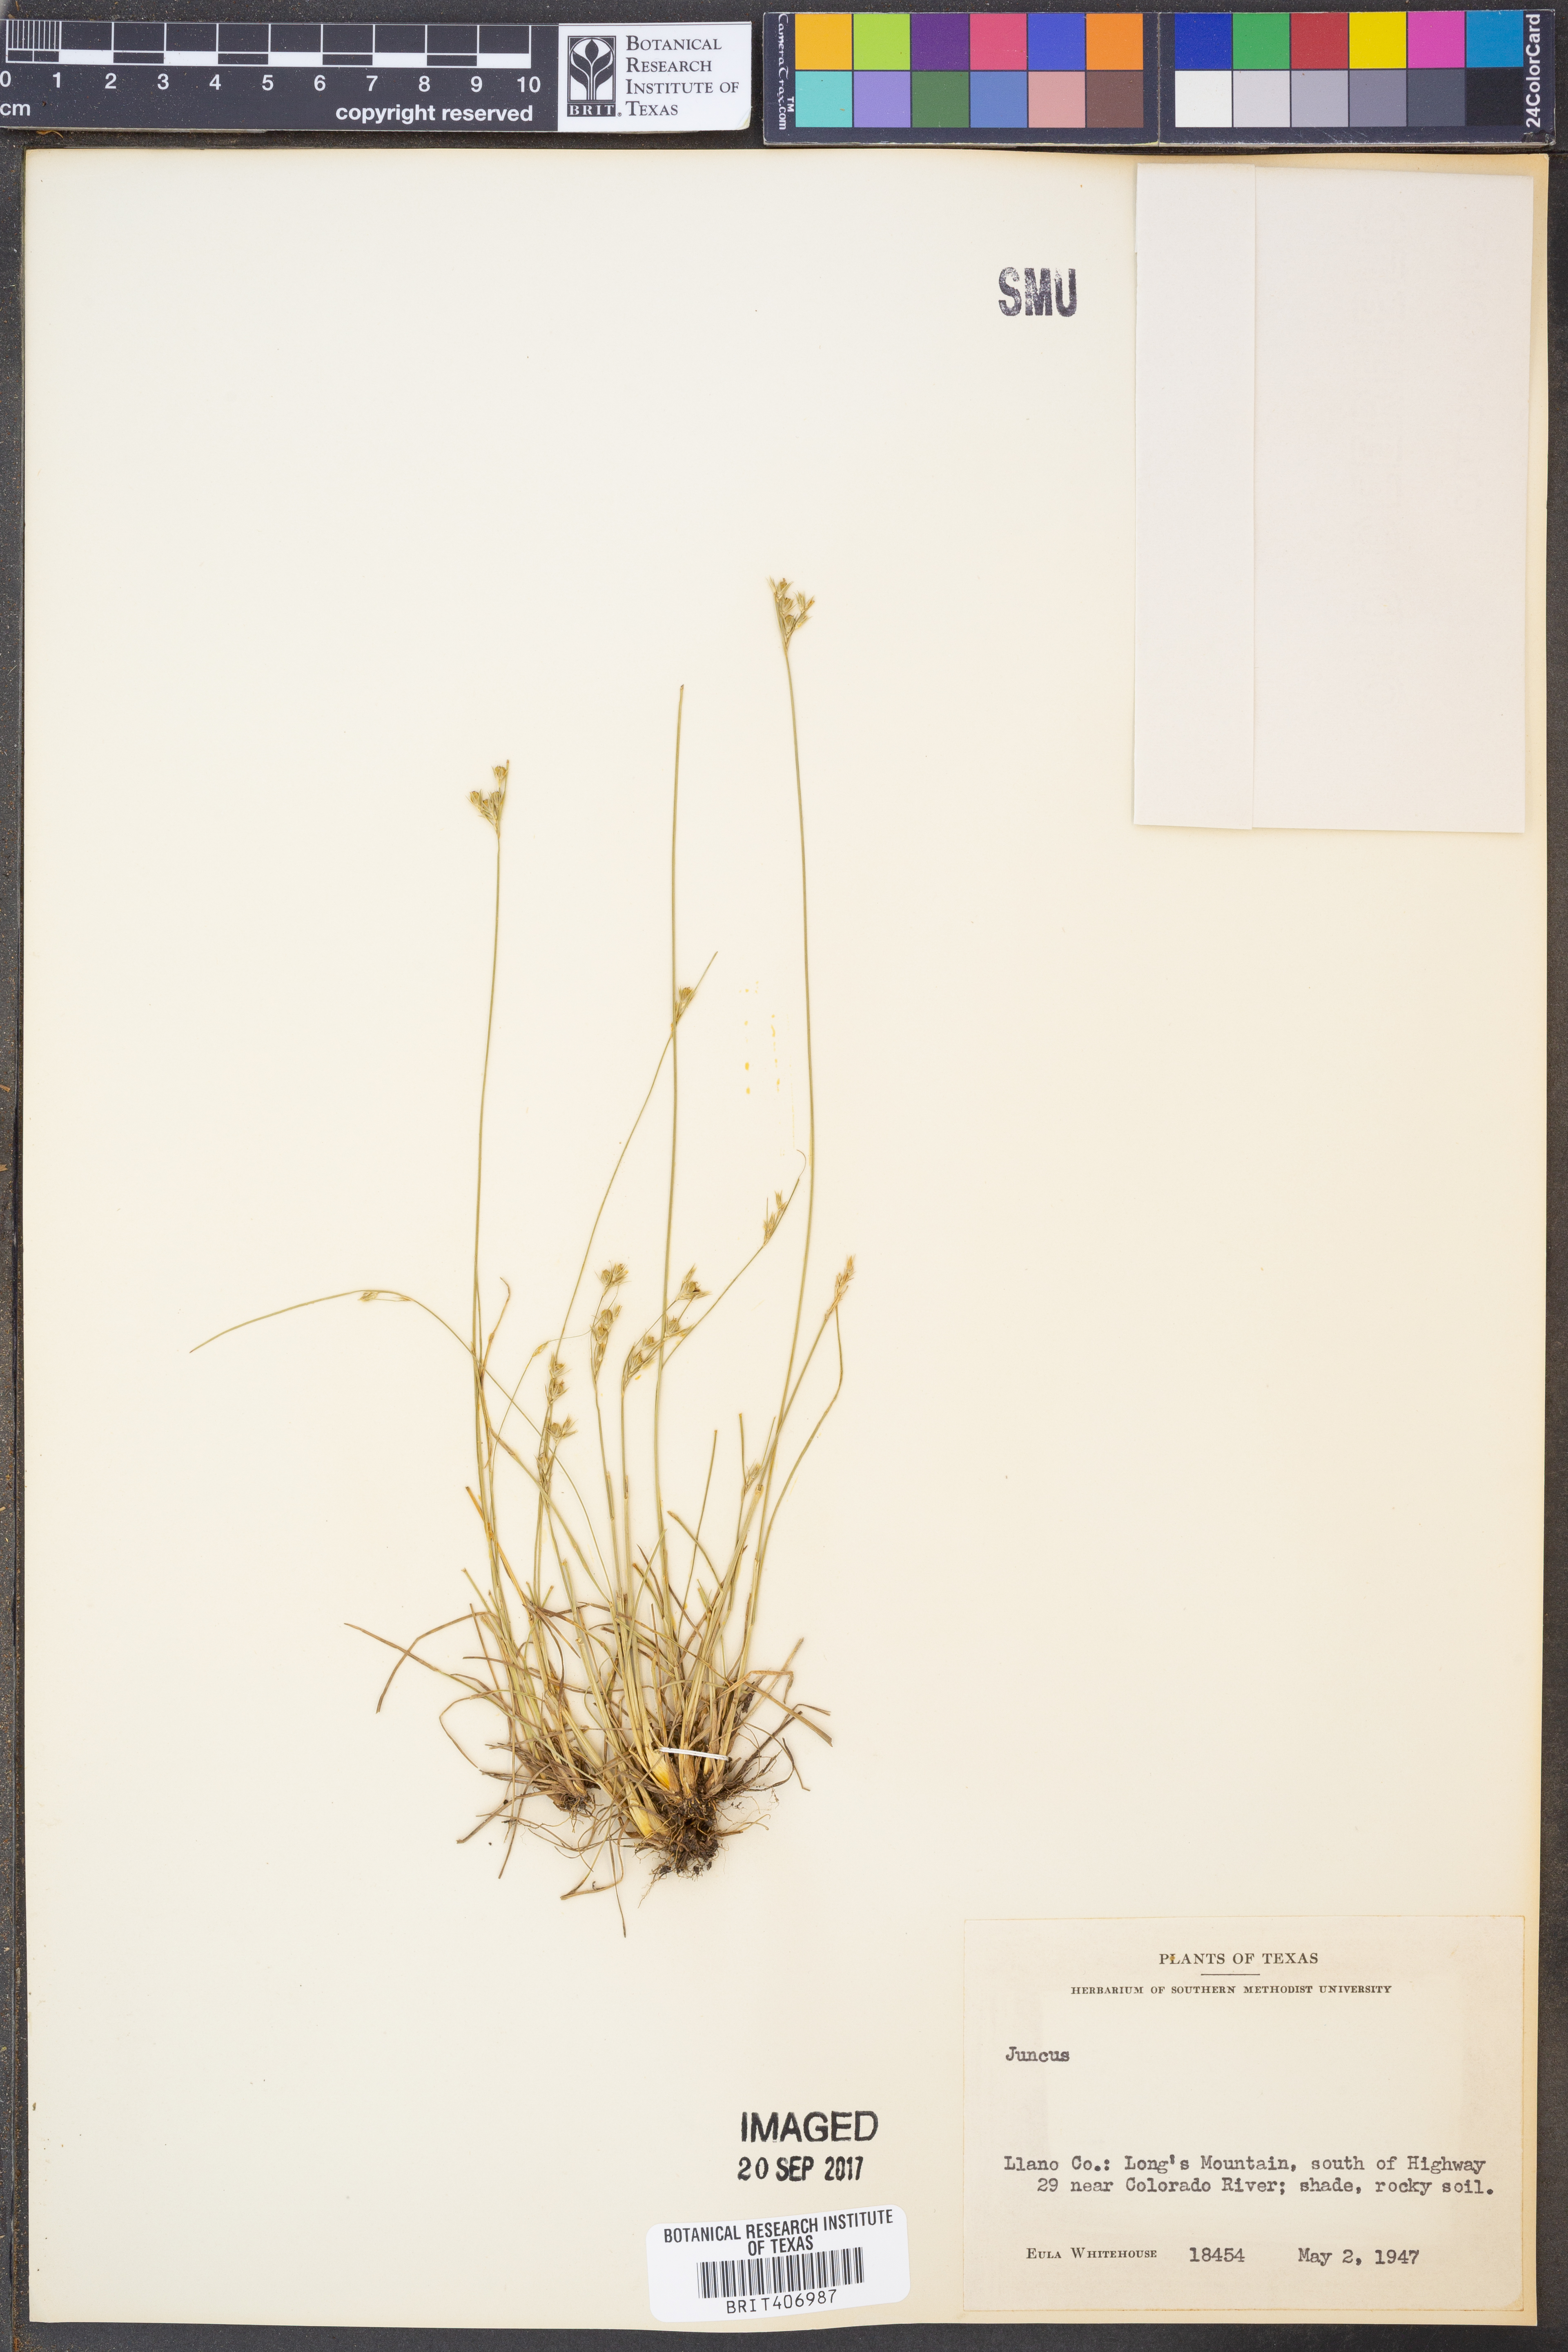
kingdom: Plantae
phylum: Tracheophyta
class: Liliopsida
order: Poales
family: Juncaceae
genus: Juncus
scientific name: Juncus
